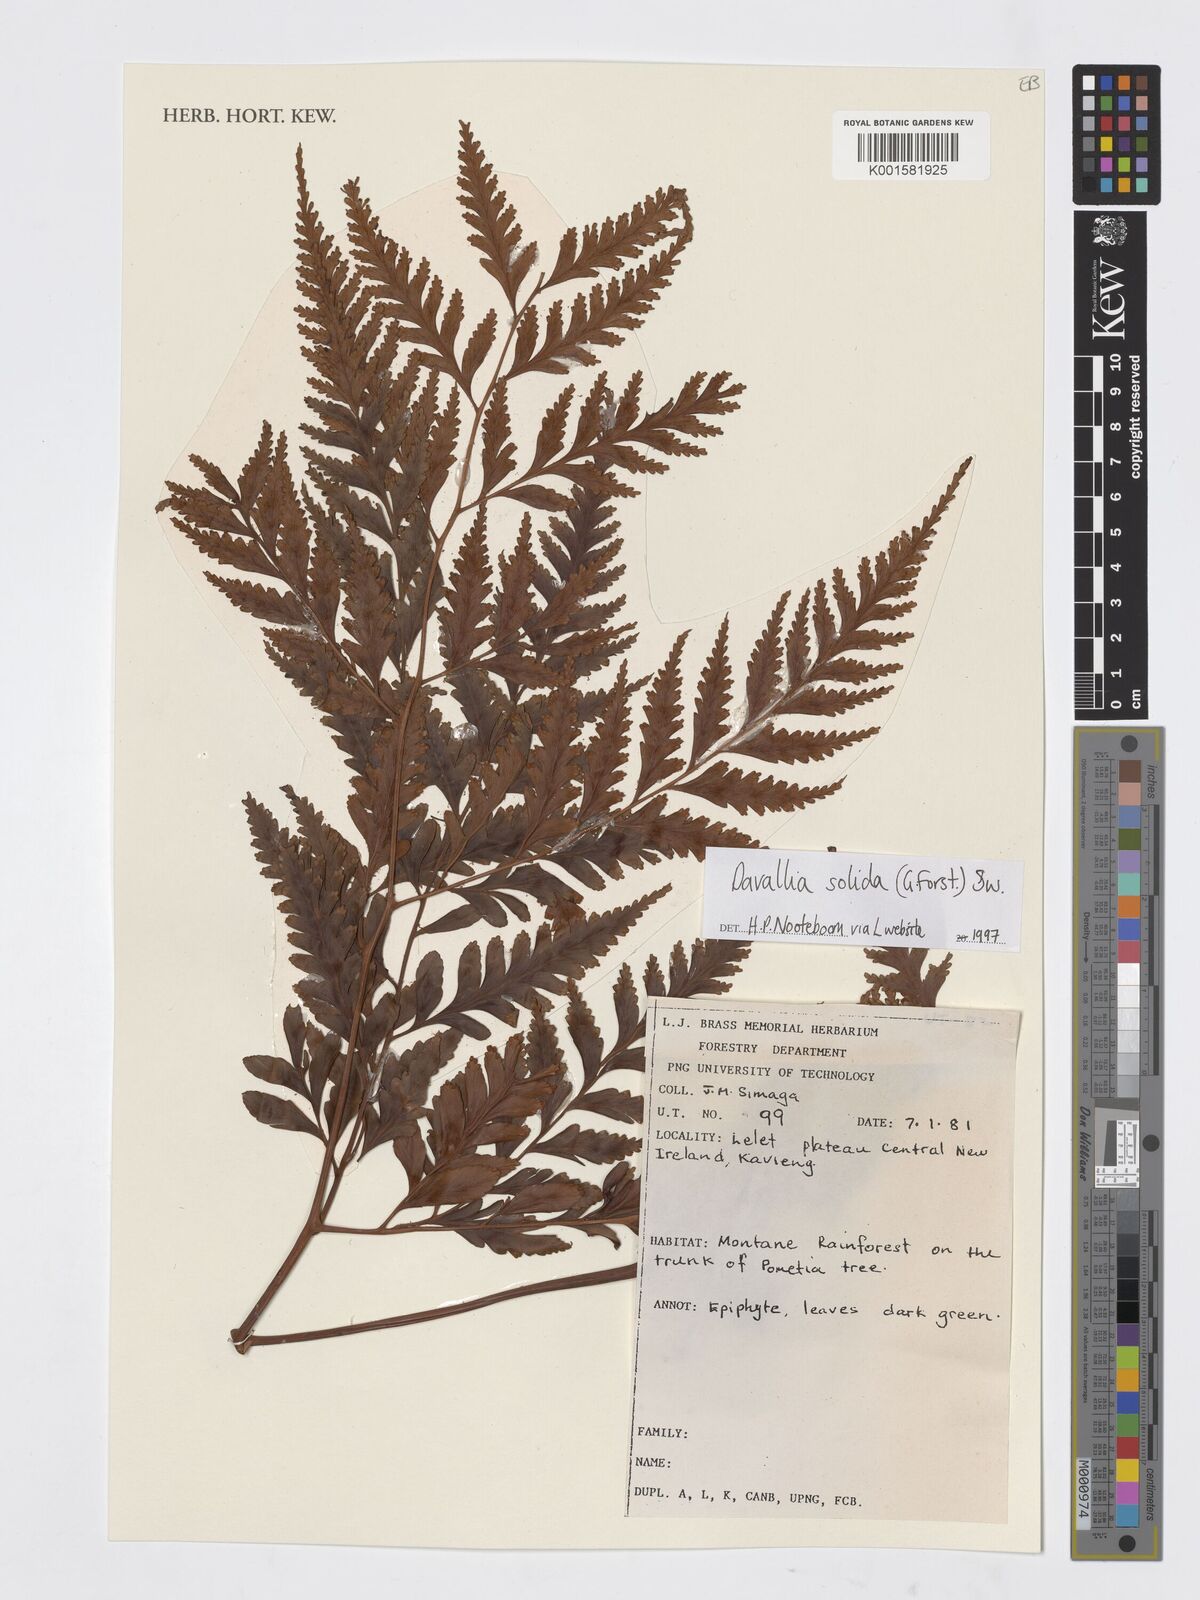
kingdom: Plantae
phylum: Tracheophyta
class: Polypodiopsida
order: Polypodiales
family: Davalliaceae
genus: Davallia
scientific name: Davallia solida
